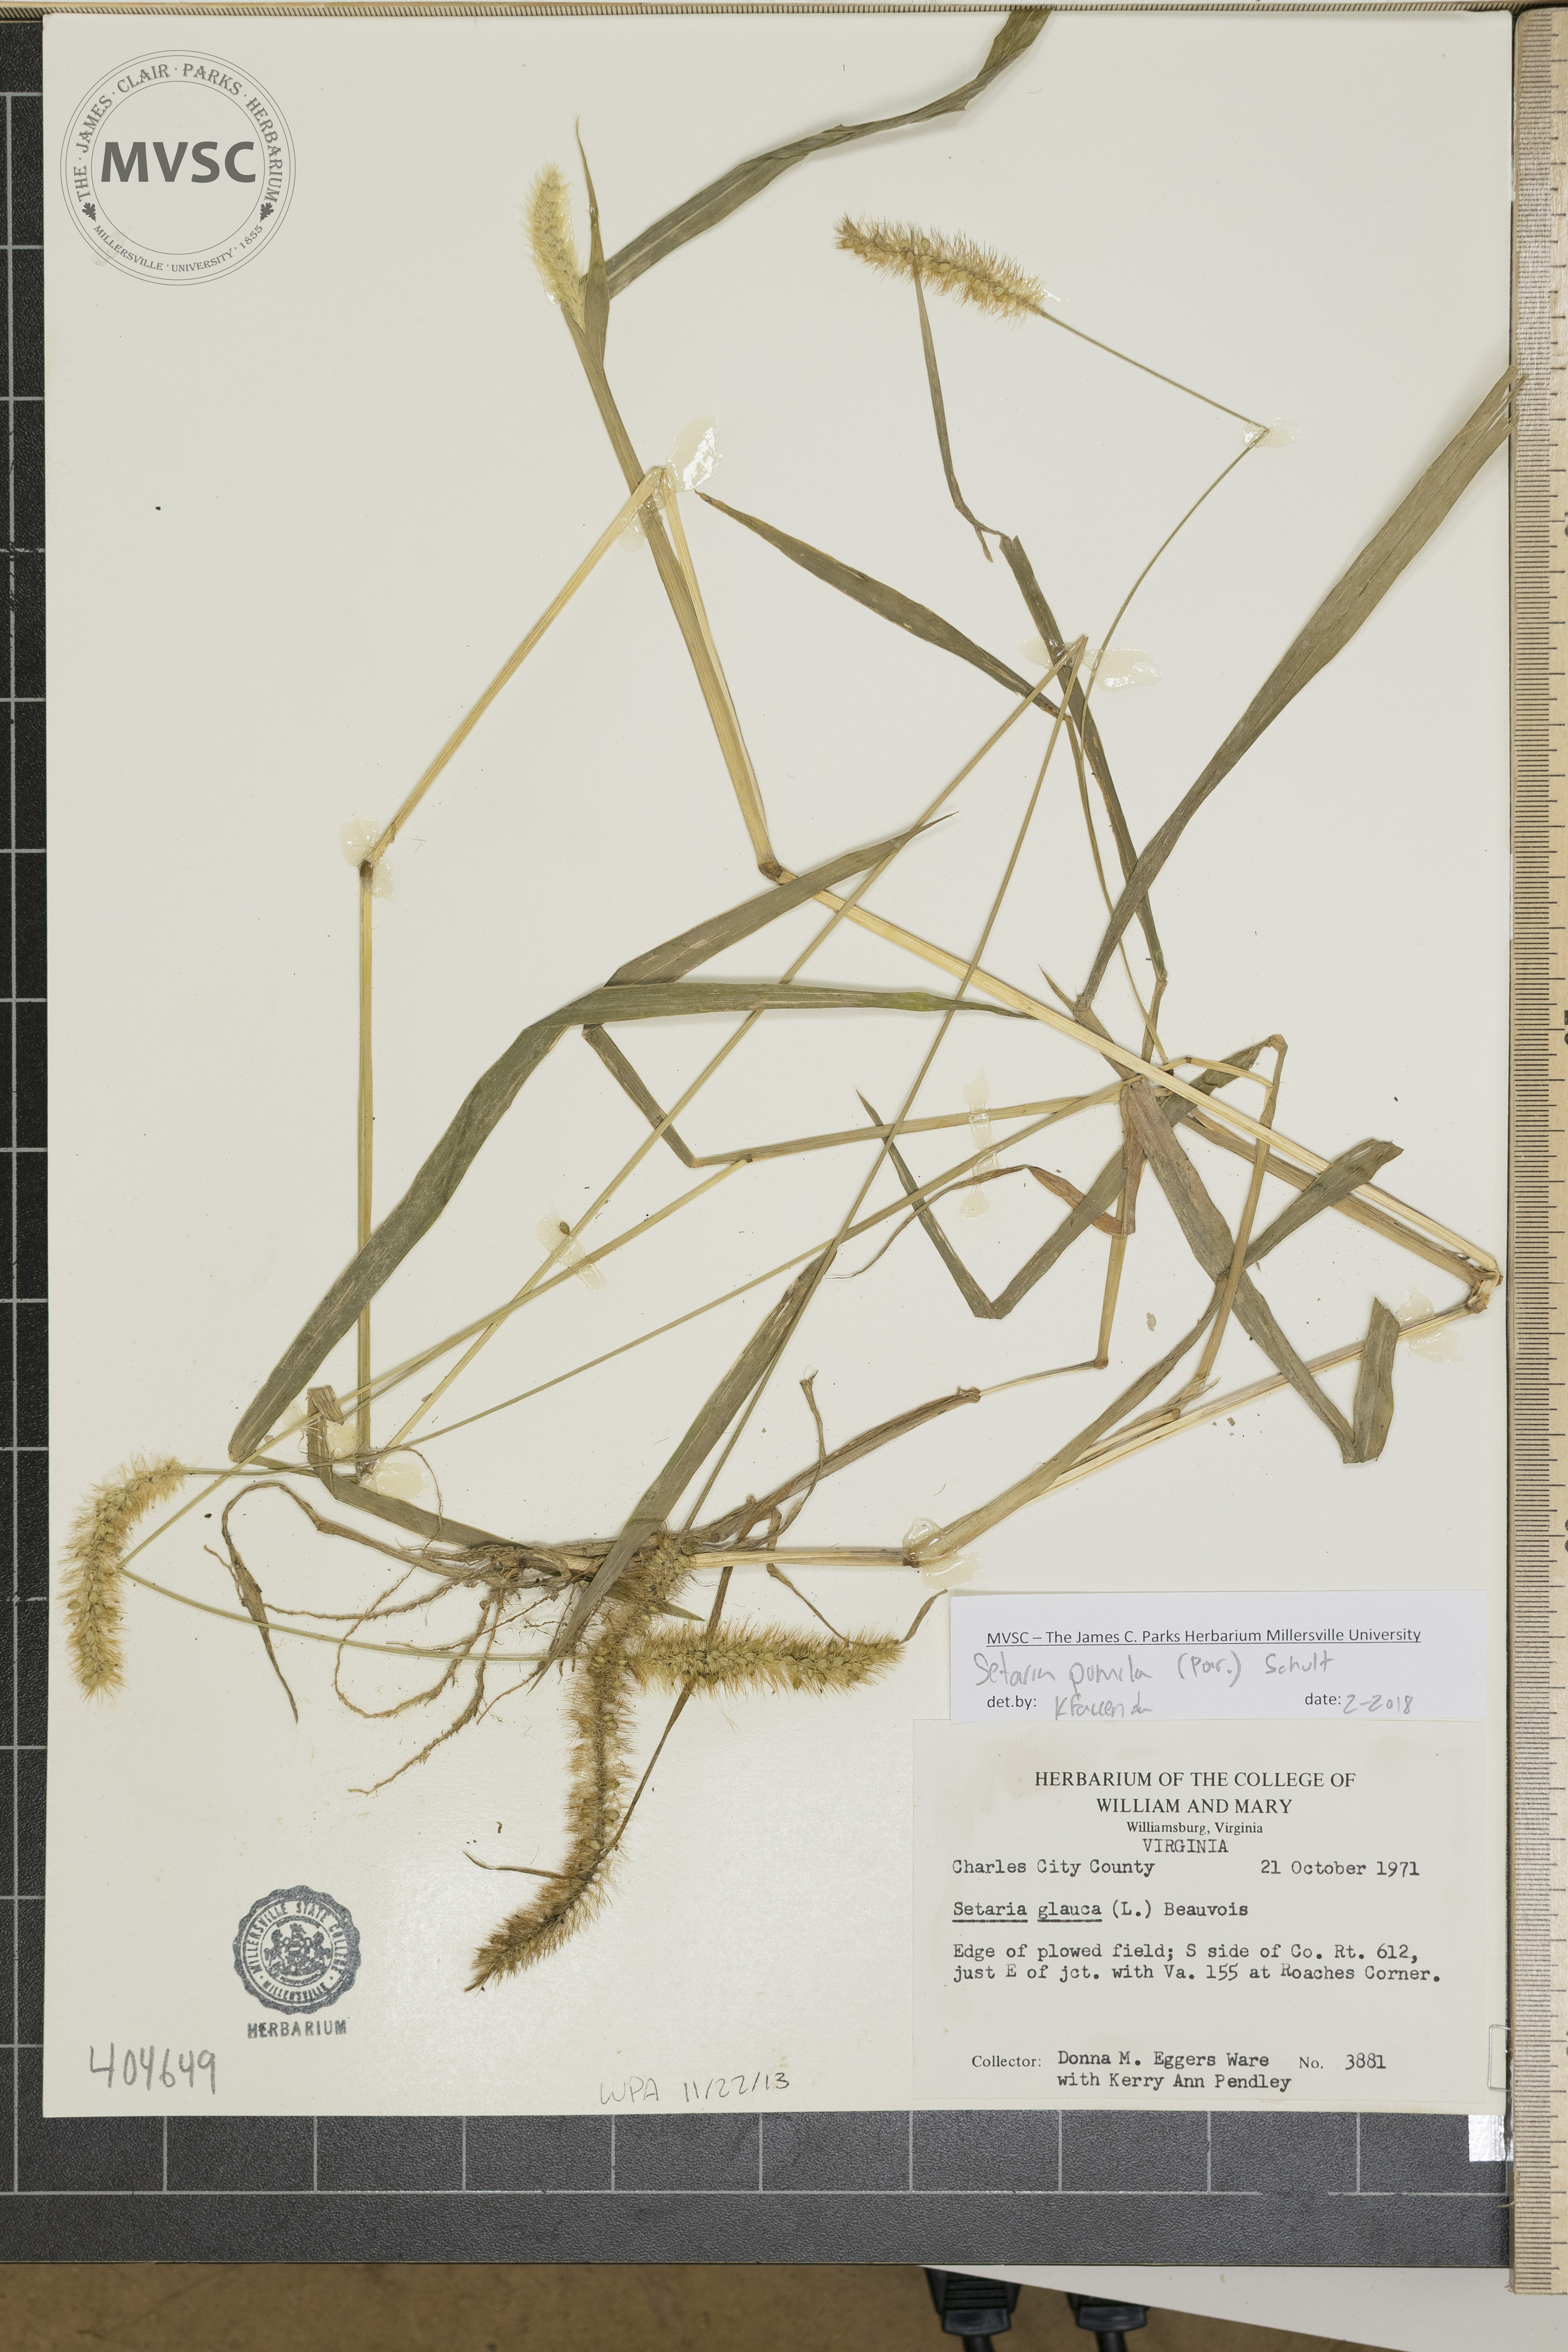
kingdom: Plantae
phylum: Tracheophyta
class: Liliopsida
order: Poales
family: Poaceae
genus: Setaria
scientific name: Setaria pumila
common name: Yellow bristle-grass
